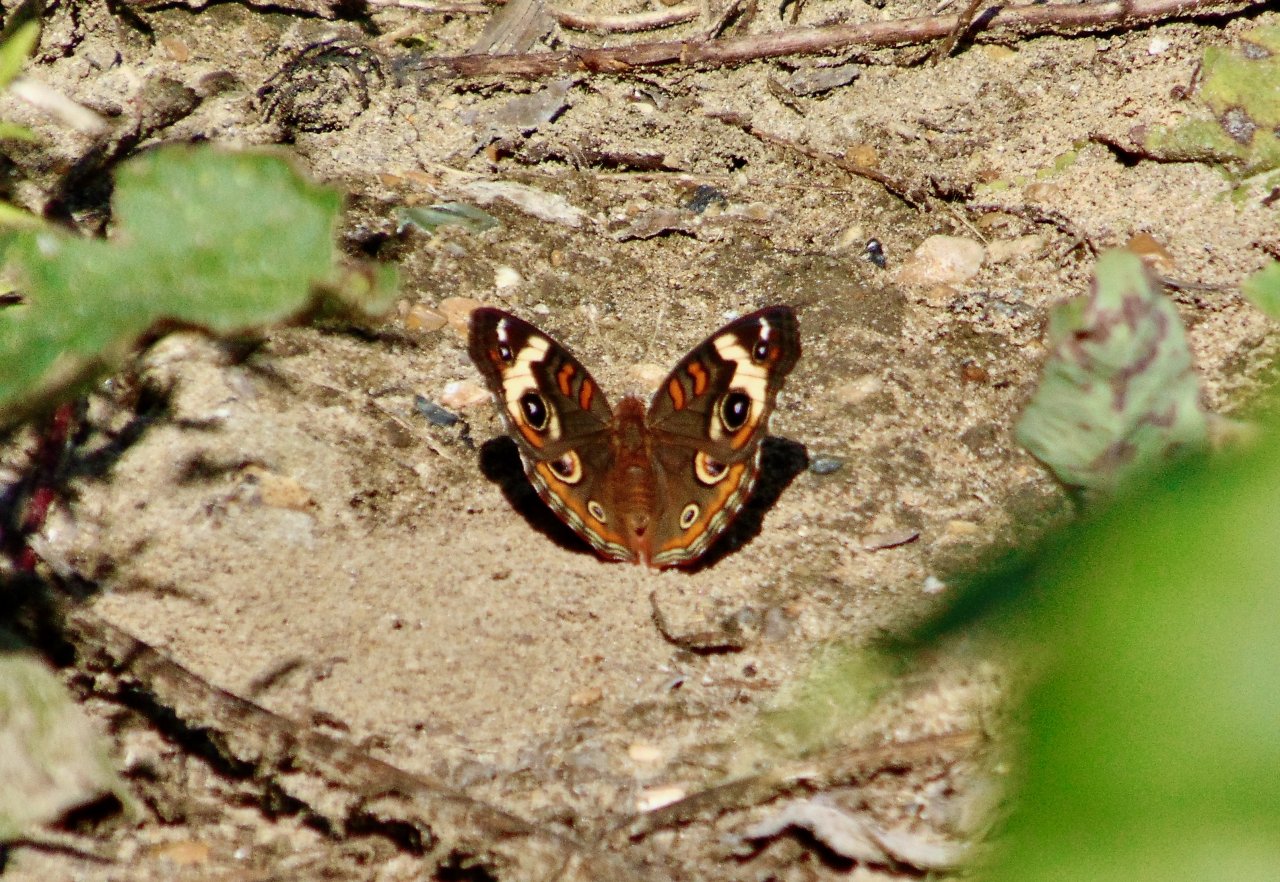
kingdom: Animalia
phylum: Arthropoda
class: Insecta
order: Lepidoptera
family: Nymphalidae
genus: Junonia
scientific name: Junonia coenia
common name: Common Buckeye
